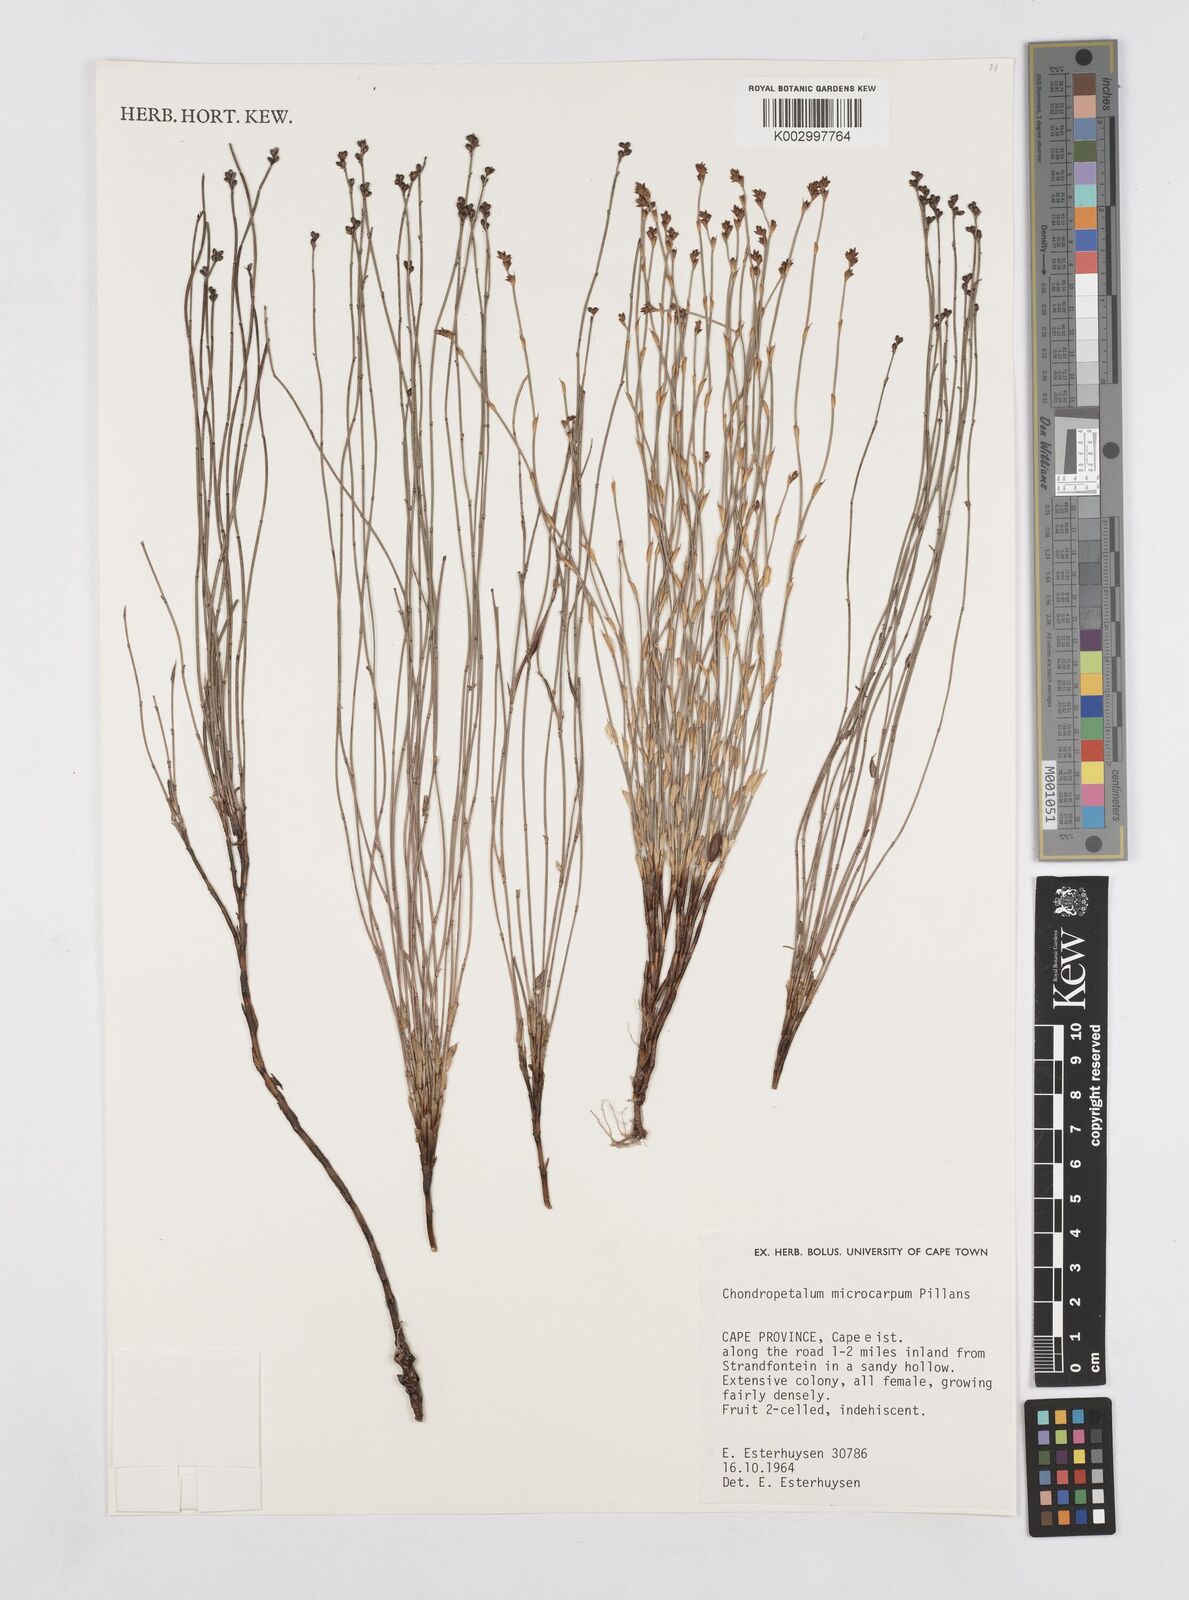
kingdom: Plantae
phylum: Tracheophyta
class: Liliopsida
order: Poales
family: Restionaceae
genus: Elegia
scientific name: Elegia juncea
